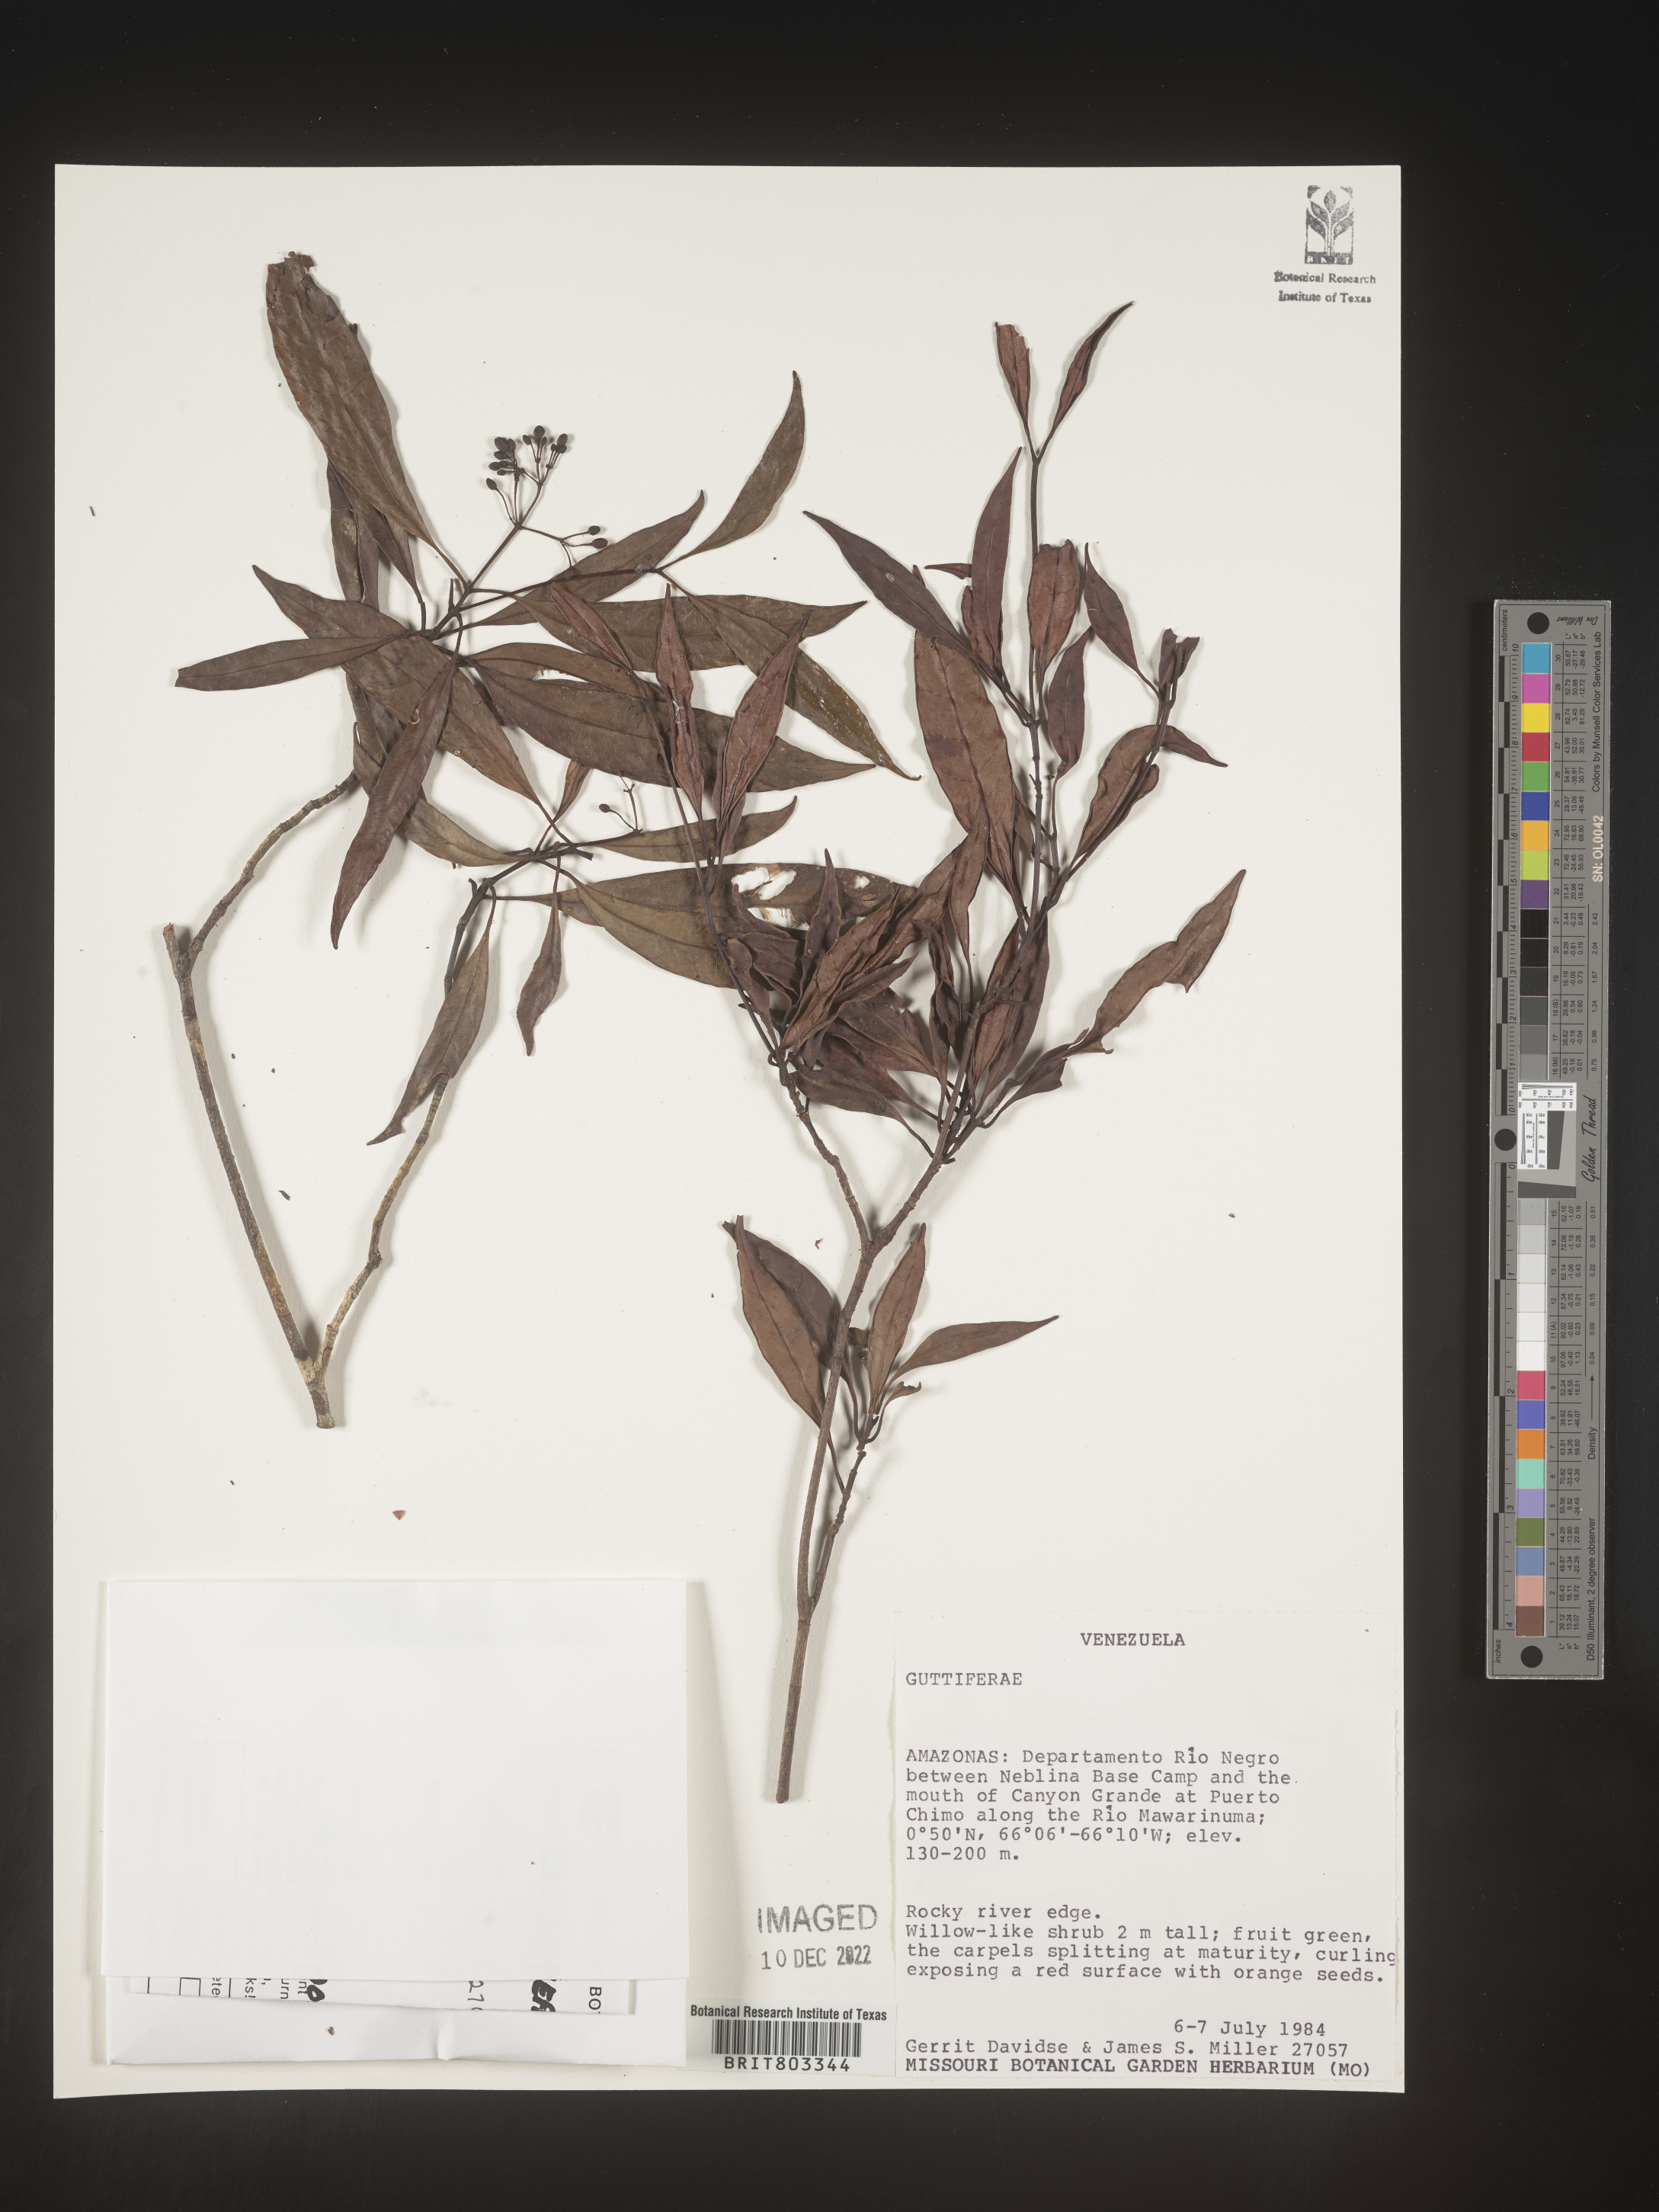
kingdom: Plantae
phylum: Tracheophyta
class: Magnoliopsida
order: Malpighiales
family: Clusiaceae
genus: Tovomita
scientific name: Tovomita
